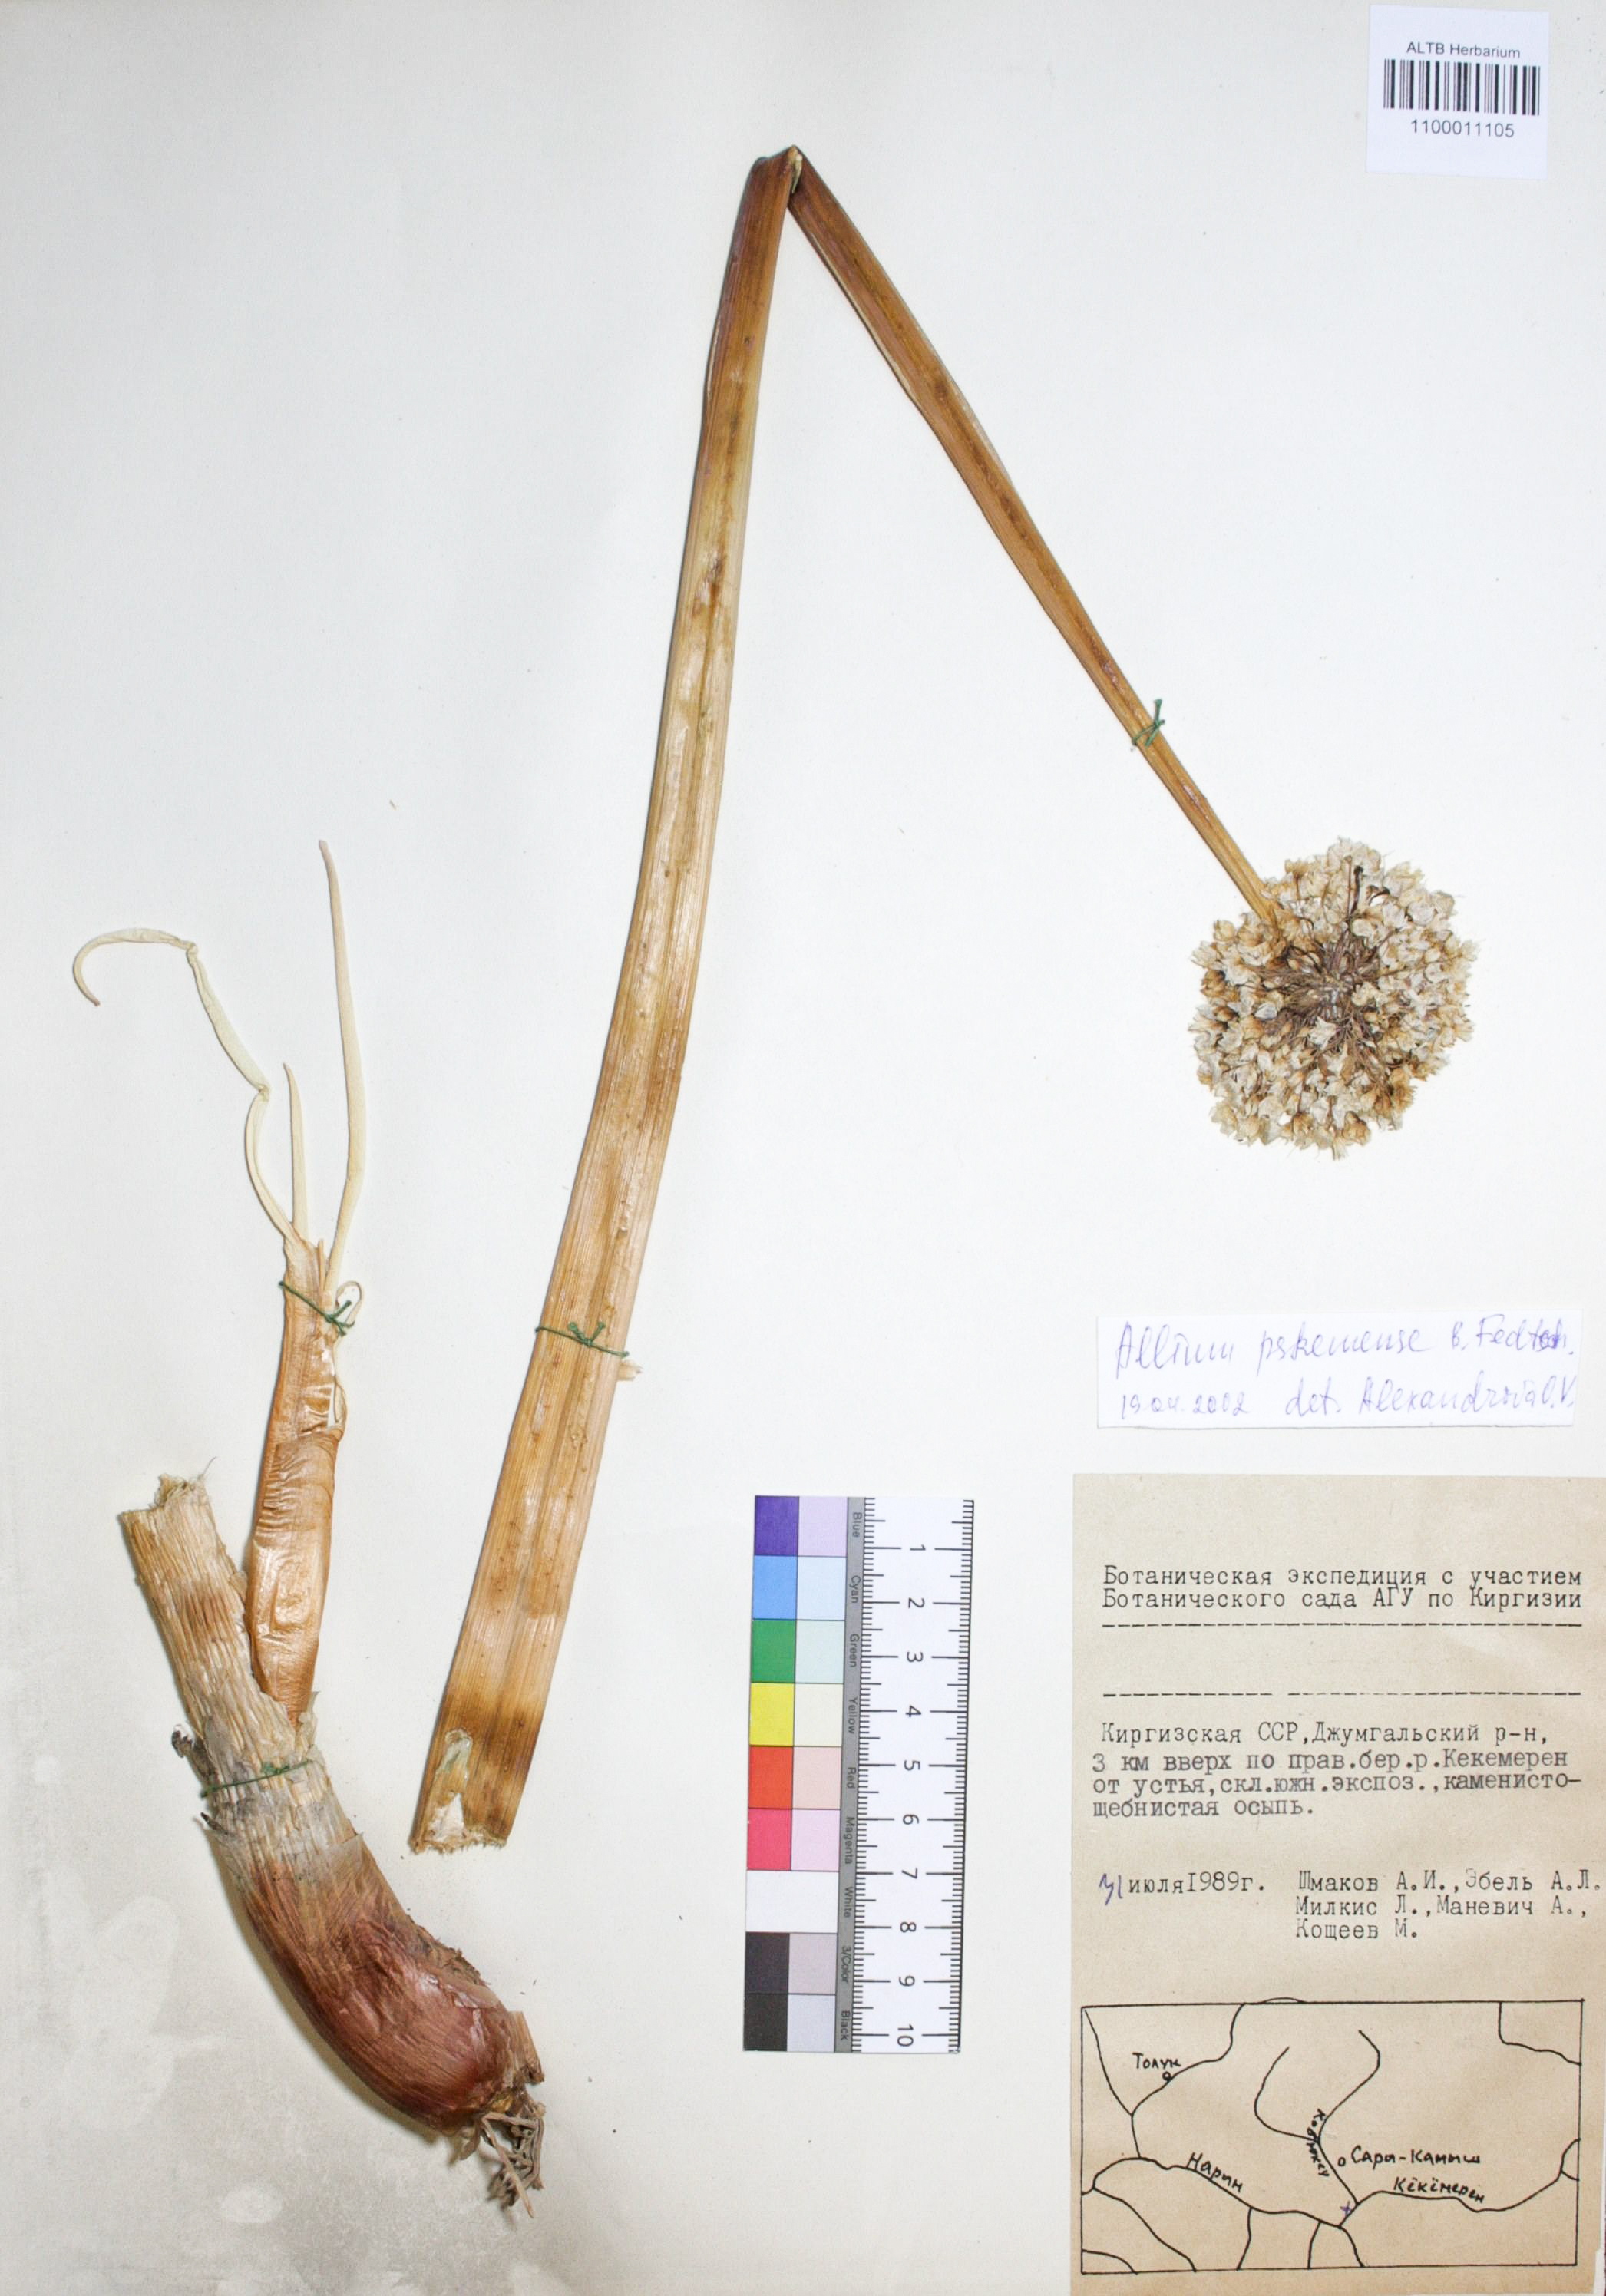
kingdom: Plantae
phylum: Tracheophyta
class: Liliopsida
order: Asparagales
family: Amaryllidaceae
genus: Allium
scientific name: Allium pskemense
